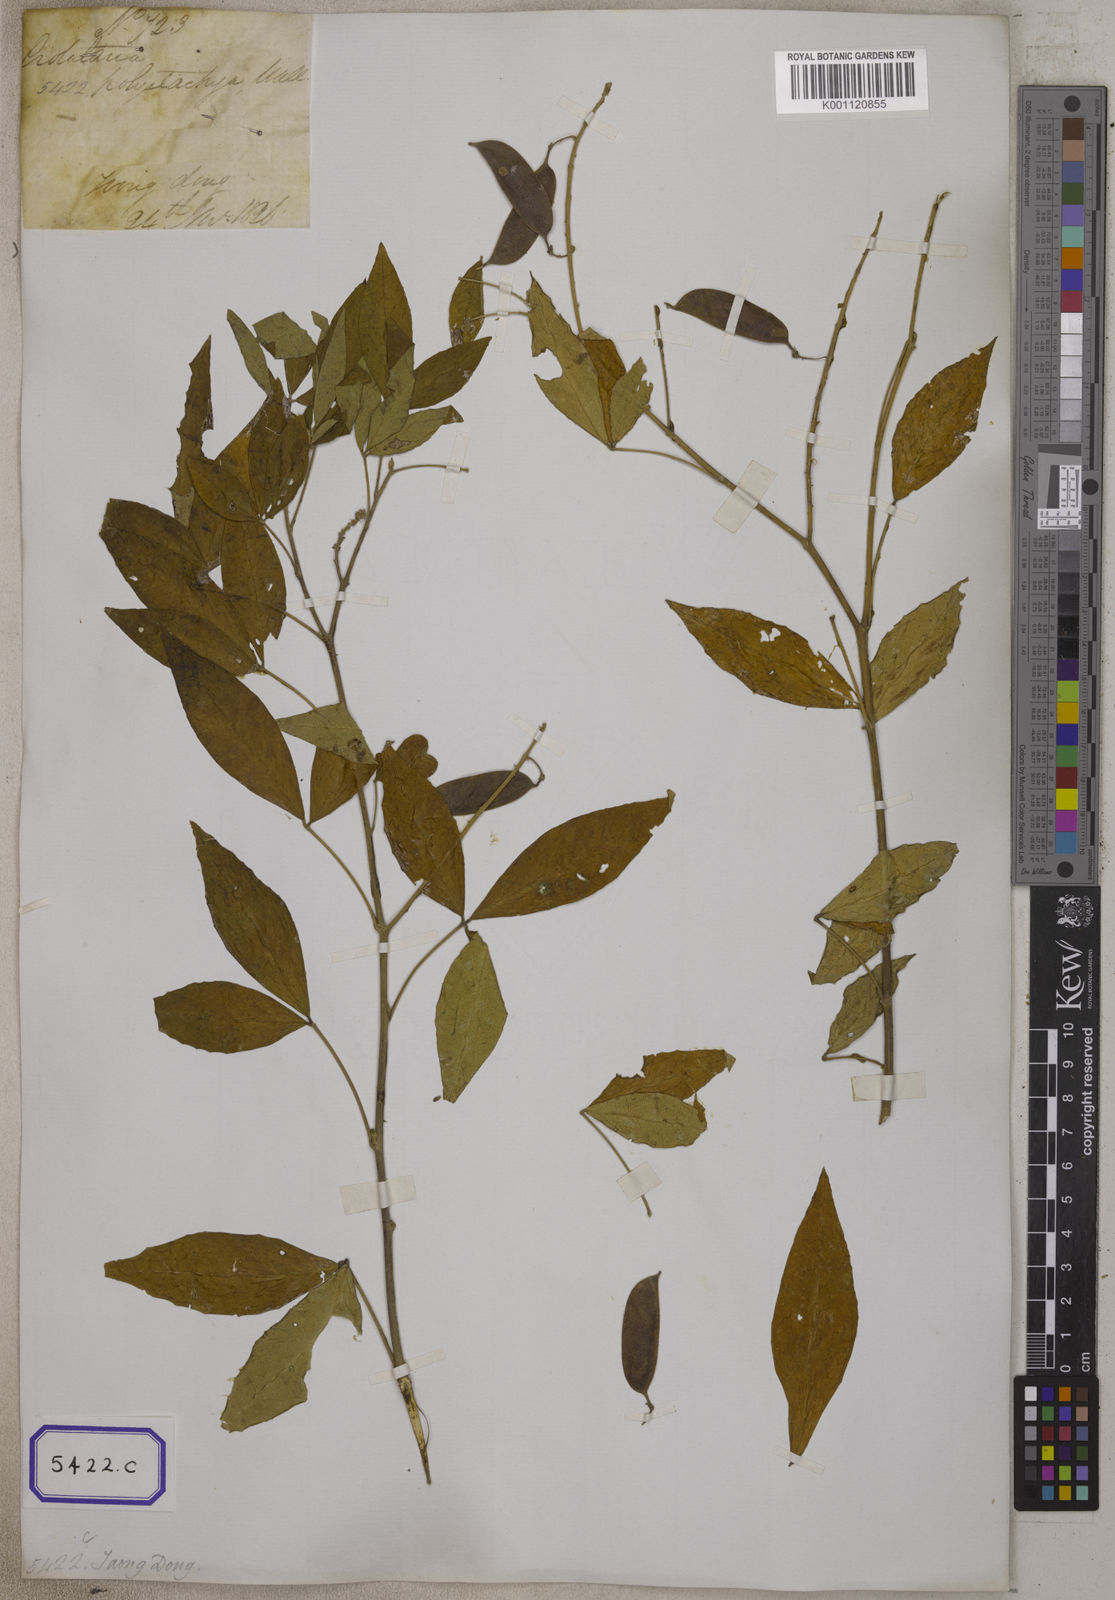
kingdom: Plantae
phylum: Tracheophyta
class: Magnoliopsida
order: Fabales
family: Fabaceae
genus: Crotalaria
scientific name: Crotalaria
